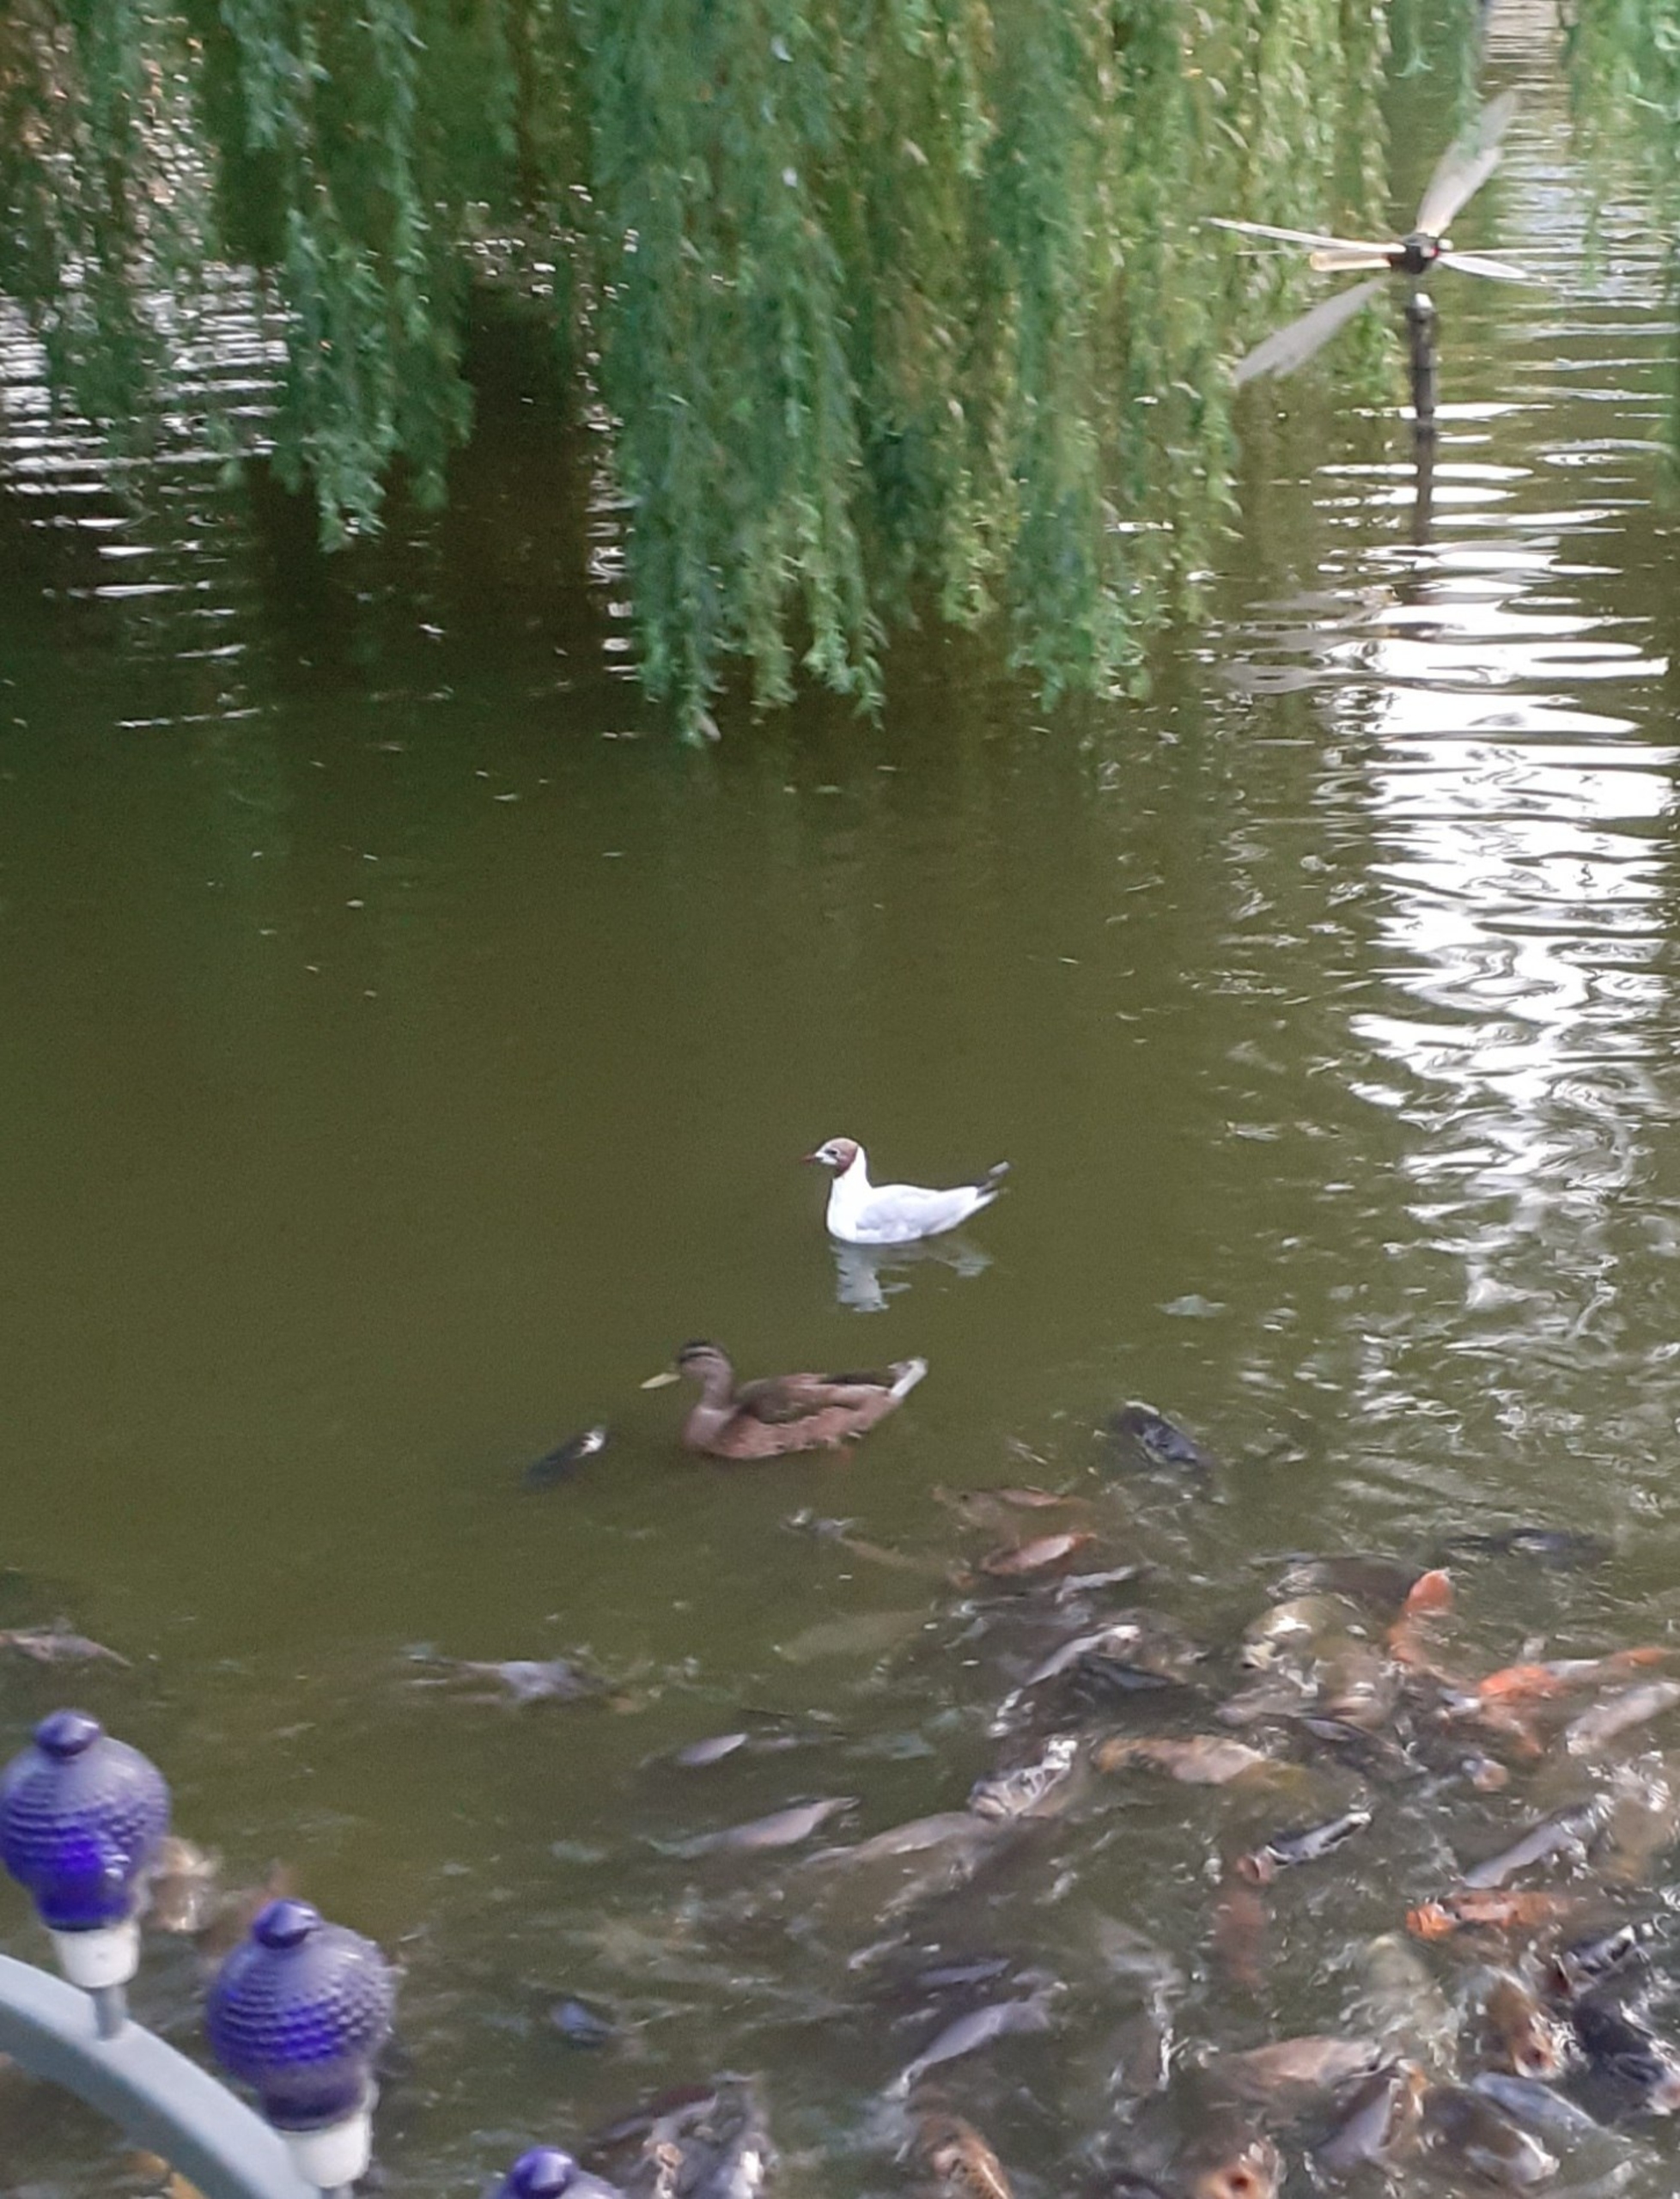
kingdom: Animalia
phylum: Chordata
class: Aves
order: Charadriiformes
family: Laridae
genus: Chroicocephalus
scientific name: Chroicocephalus ridibundus
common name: Hættemåge
